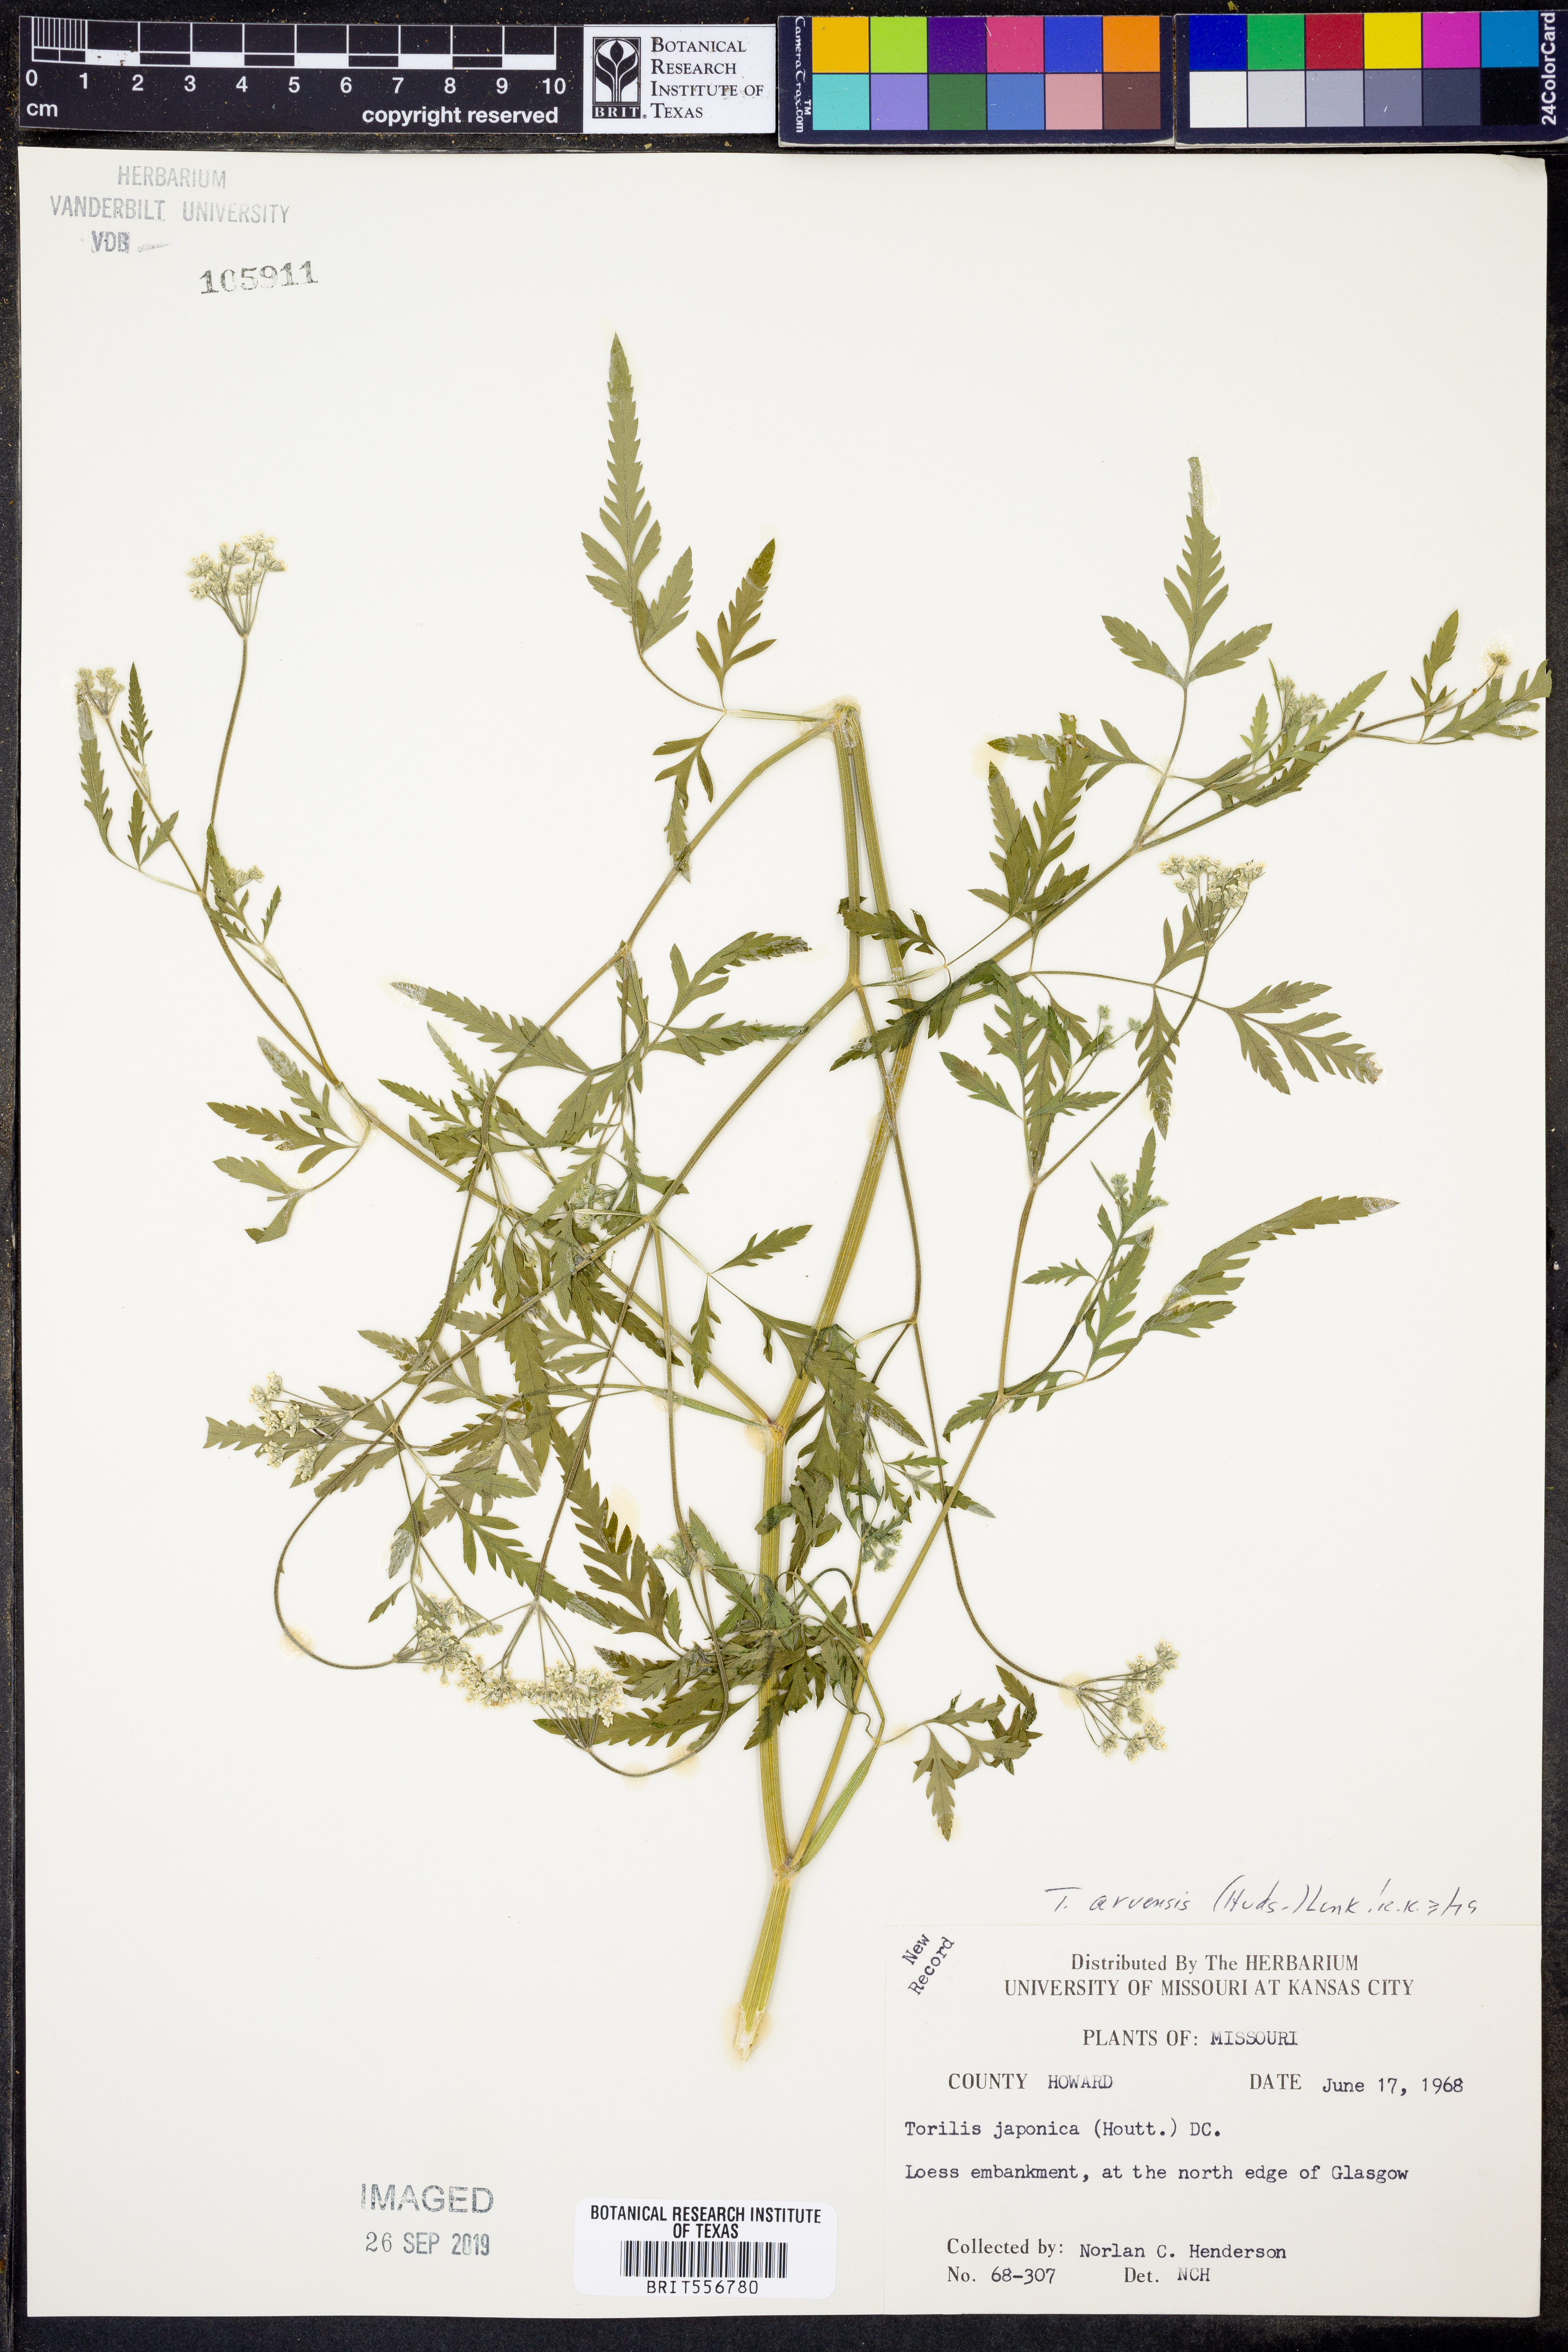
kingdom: Plantae
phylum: Tracheophyta
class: Magnoliopsida
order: Apiales
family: Apiaceae
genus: Torilis
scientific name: Torilis arvensis
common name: Spreading hedge-parsley
